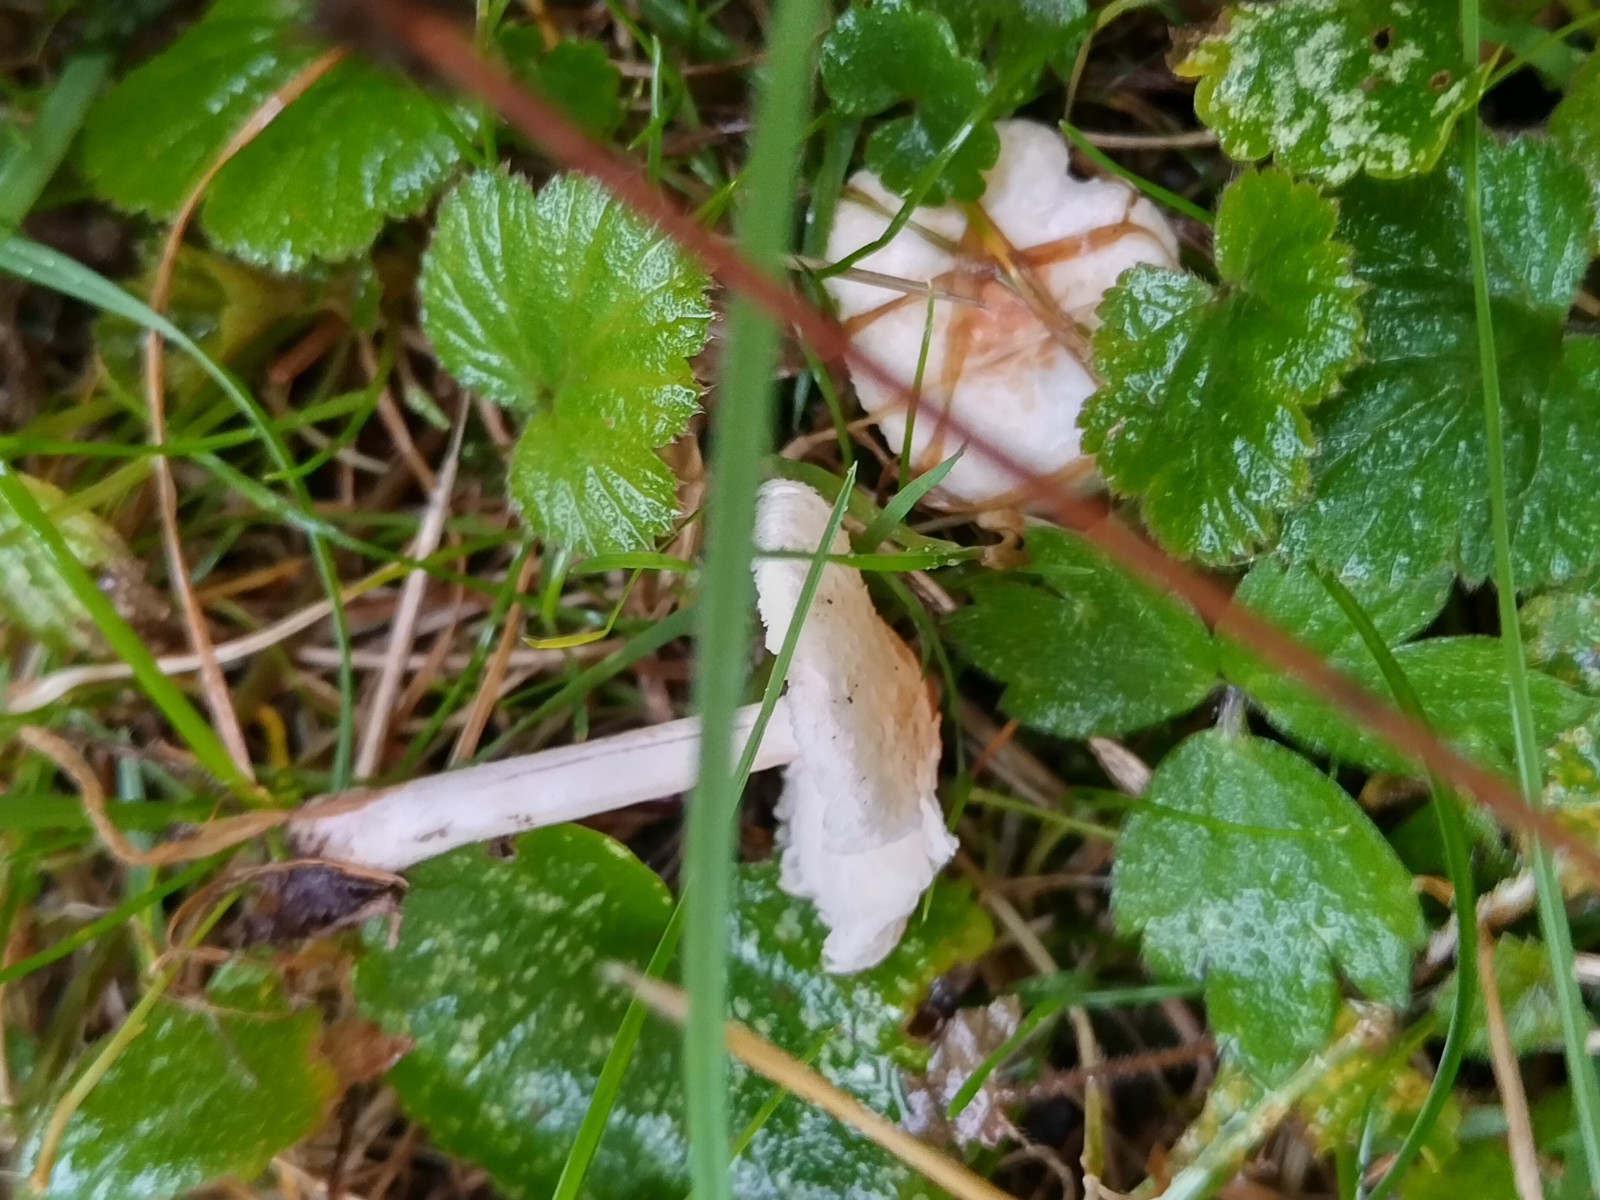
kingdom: Fungi
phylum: Basidiomycota
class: Agaricomycetes
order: Agaricales
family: Agaricaceae
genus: Lepiota
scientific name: Lepiota cristata
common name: stinkende parasolhat
